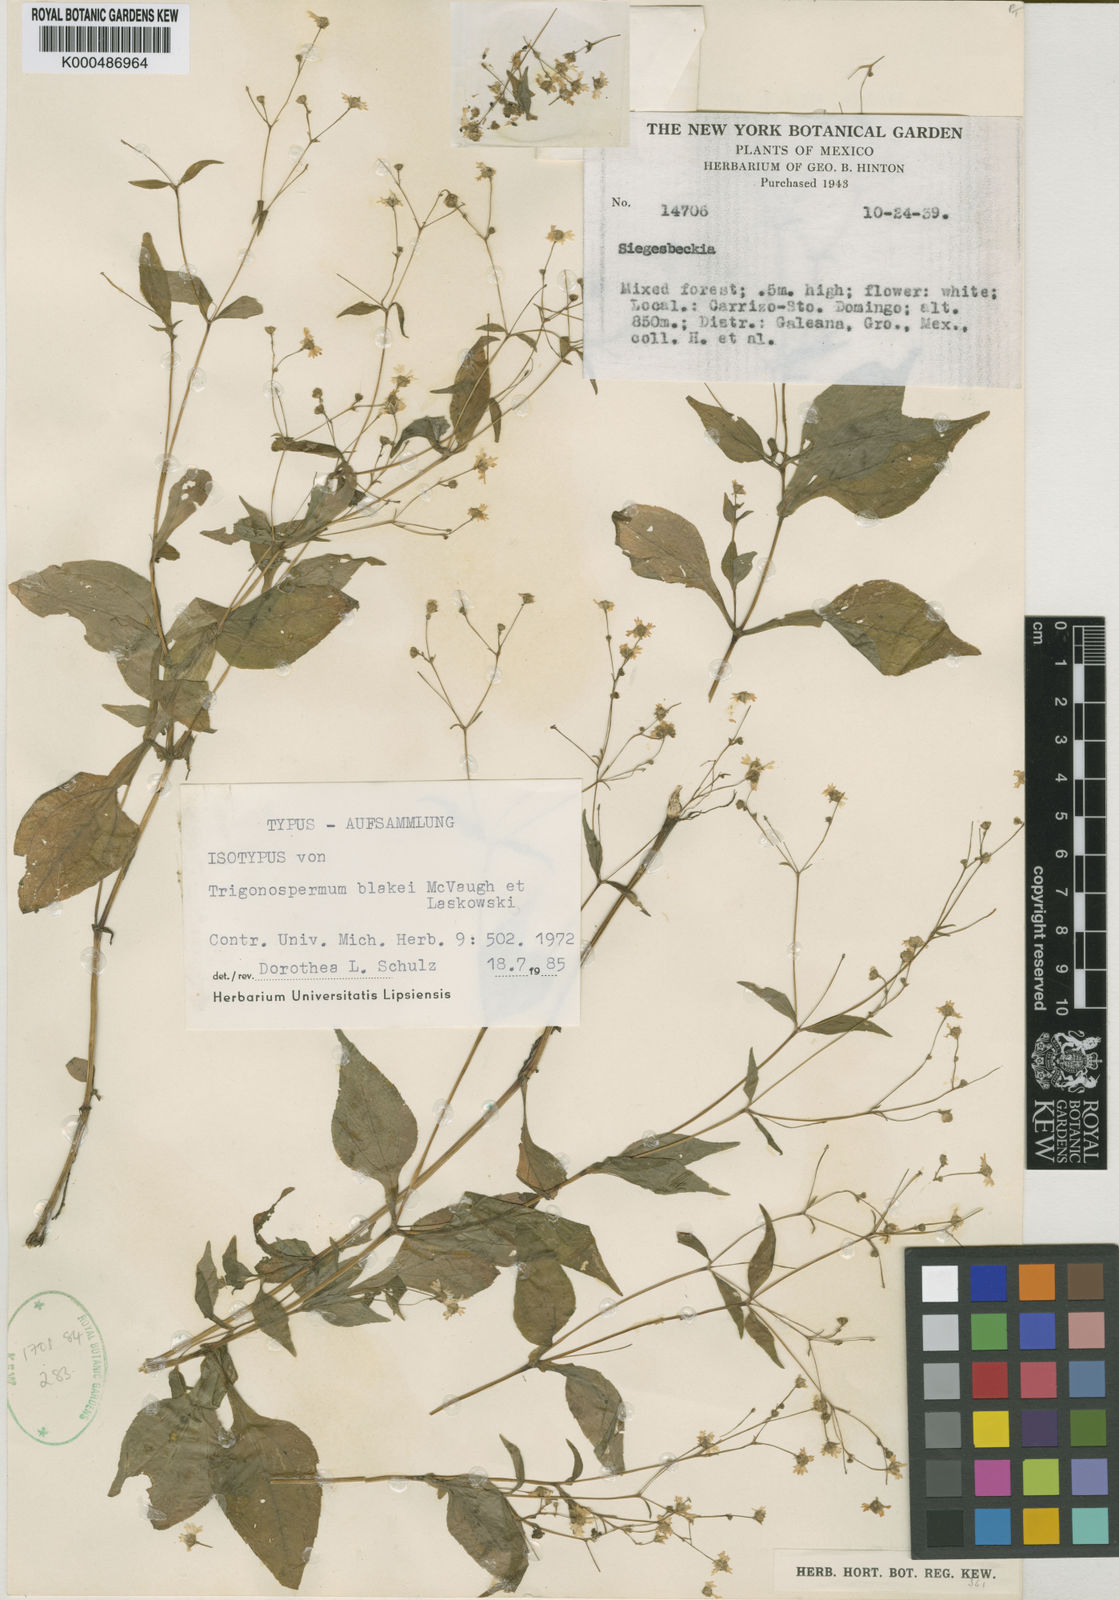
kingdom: Plantae
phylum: Tracheophyta
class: Magnoliopsida
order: Asterales
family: Asteraceae
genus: Zandera
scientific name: Zandera blakei
